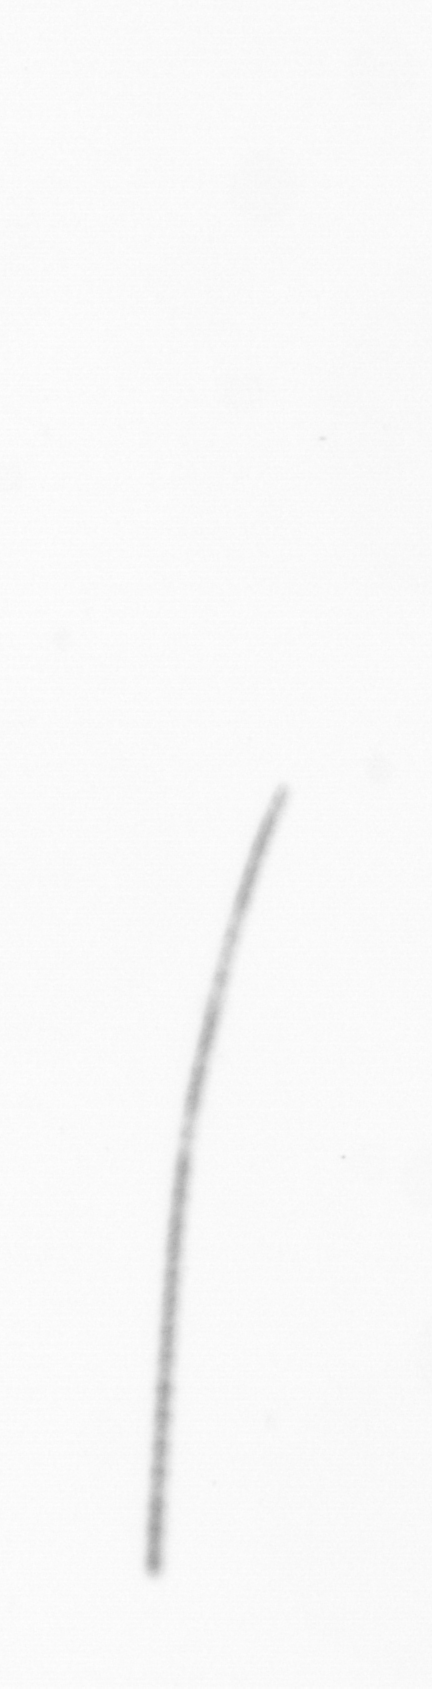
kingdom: Chromista
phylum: Ochrophyta
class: Bacillariophyceae
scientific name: Bacillariophyceae
